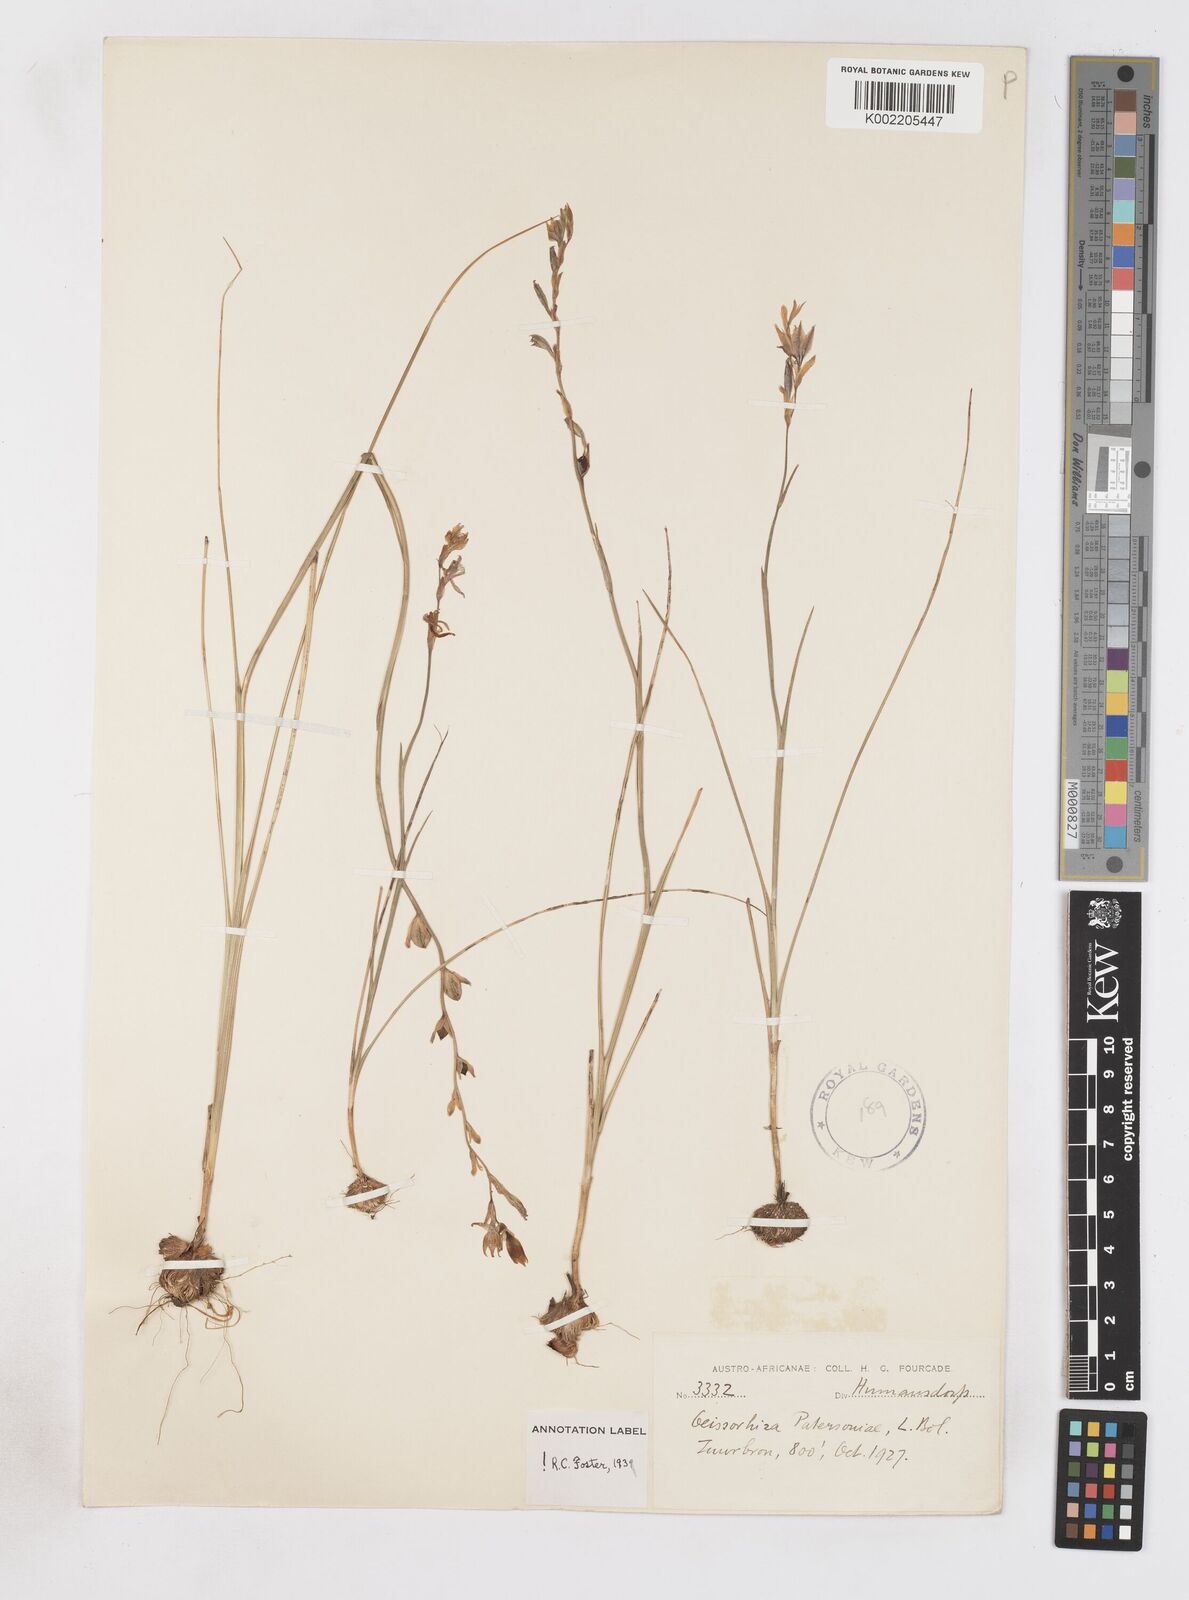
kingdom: Plantae
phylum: Tracheophyta
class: Liliopsida
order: Asparagales
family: Iridaceae
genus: Gladiolus
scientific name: Gladiolus stellatus
